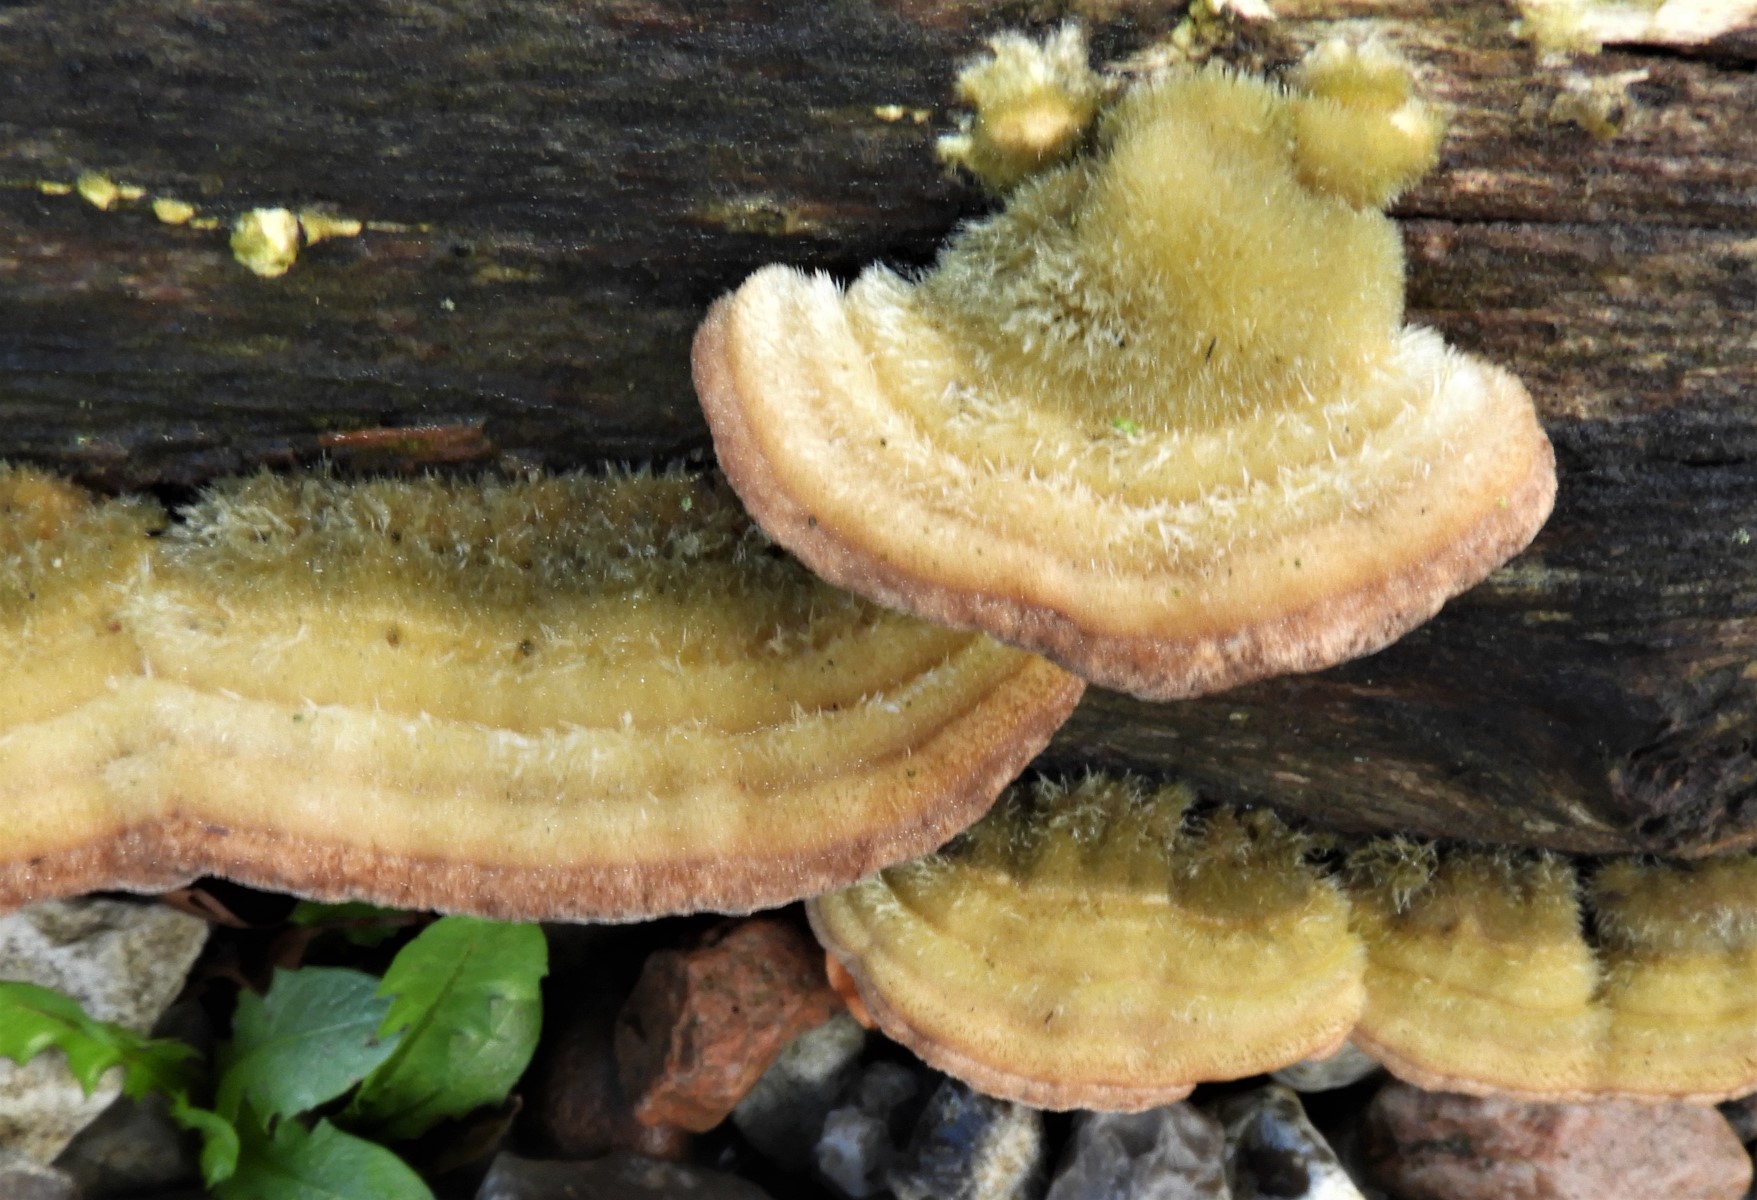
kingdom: Fungi
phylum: Basidiomycota
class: Agaricomycetes
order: Polyporales
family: Polyporaceae
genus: Trametes
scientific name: Trametes hirsuta
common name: håret læderporesvamp
